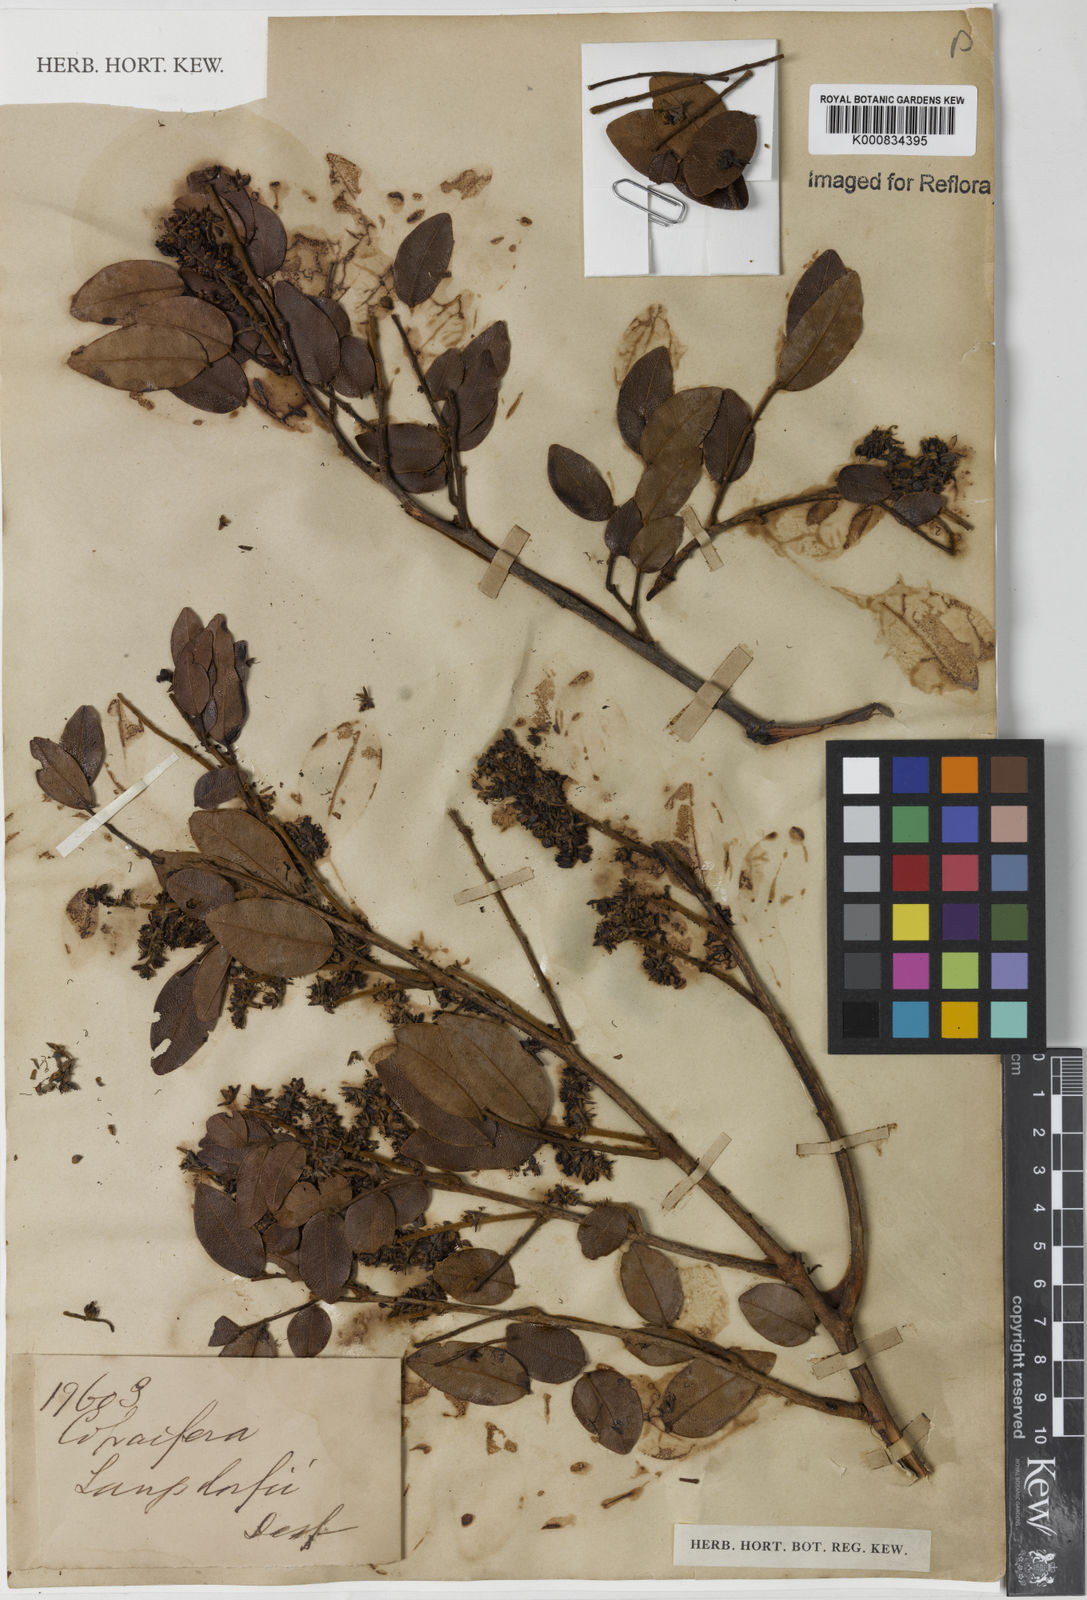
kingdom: Plantae
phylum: Tracheophyta
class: Magnoliopsida
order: Fabales
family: Fabaceae
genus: Copaifera
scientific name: Copaifera langsdorffii
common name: Brazilian diesel tree
